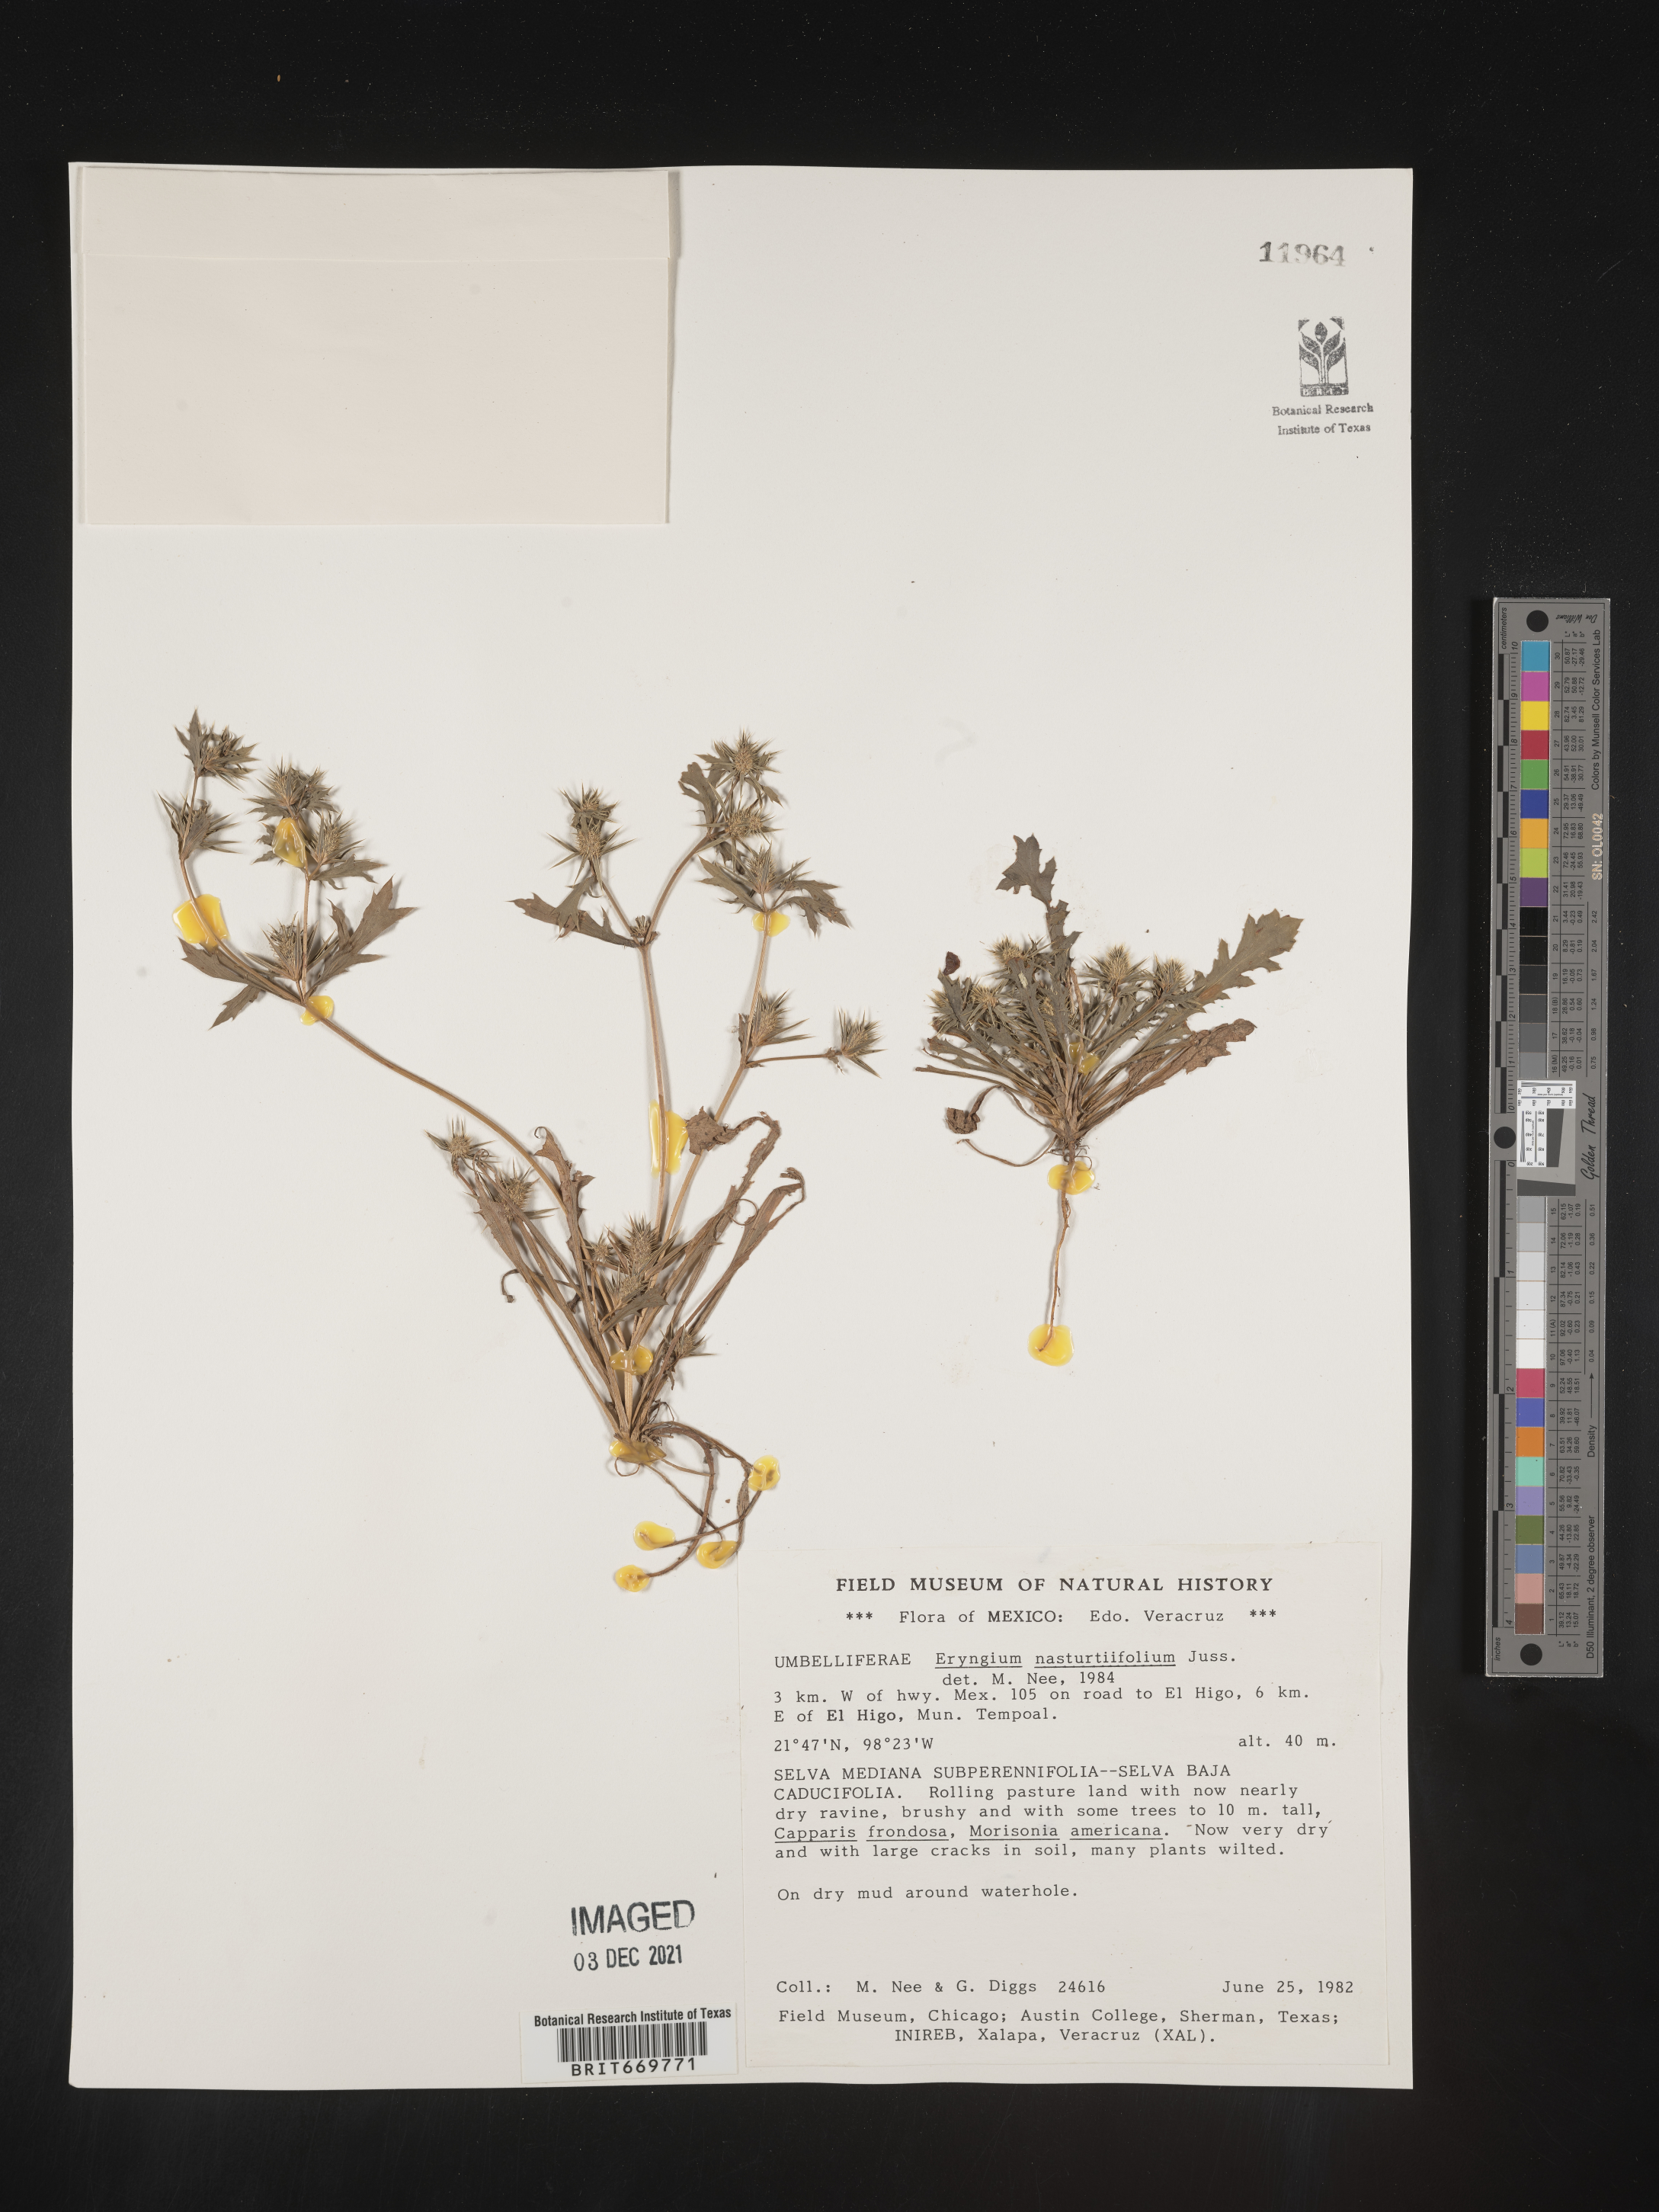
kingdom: Plantae
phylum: Tracheophyta
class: Magnoliopsida
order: Apiales
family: Apiaceae
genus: Eryngium
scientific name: Eryngium
